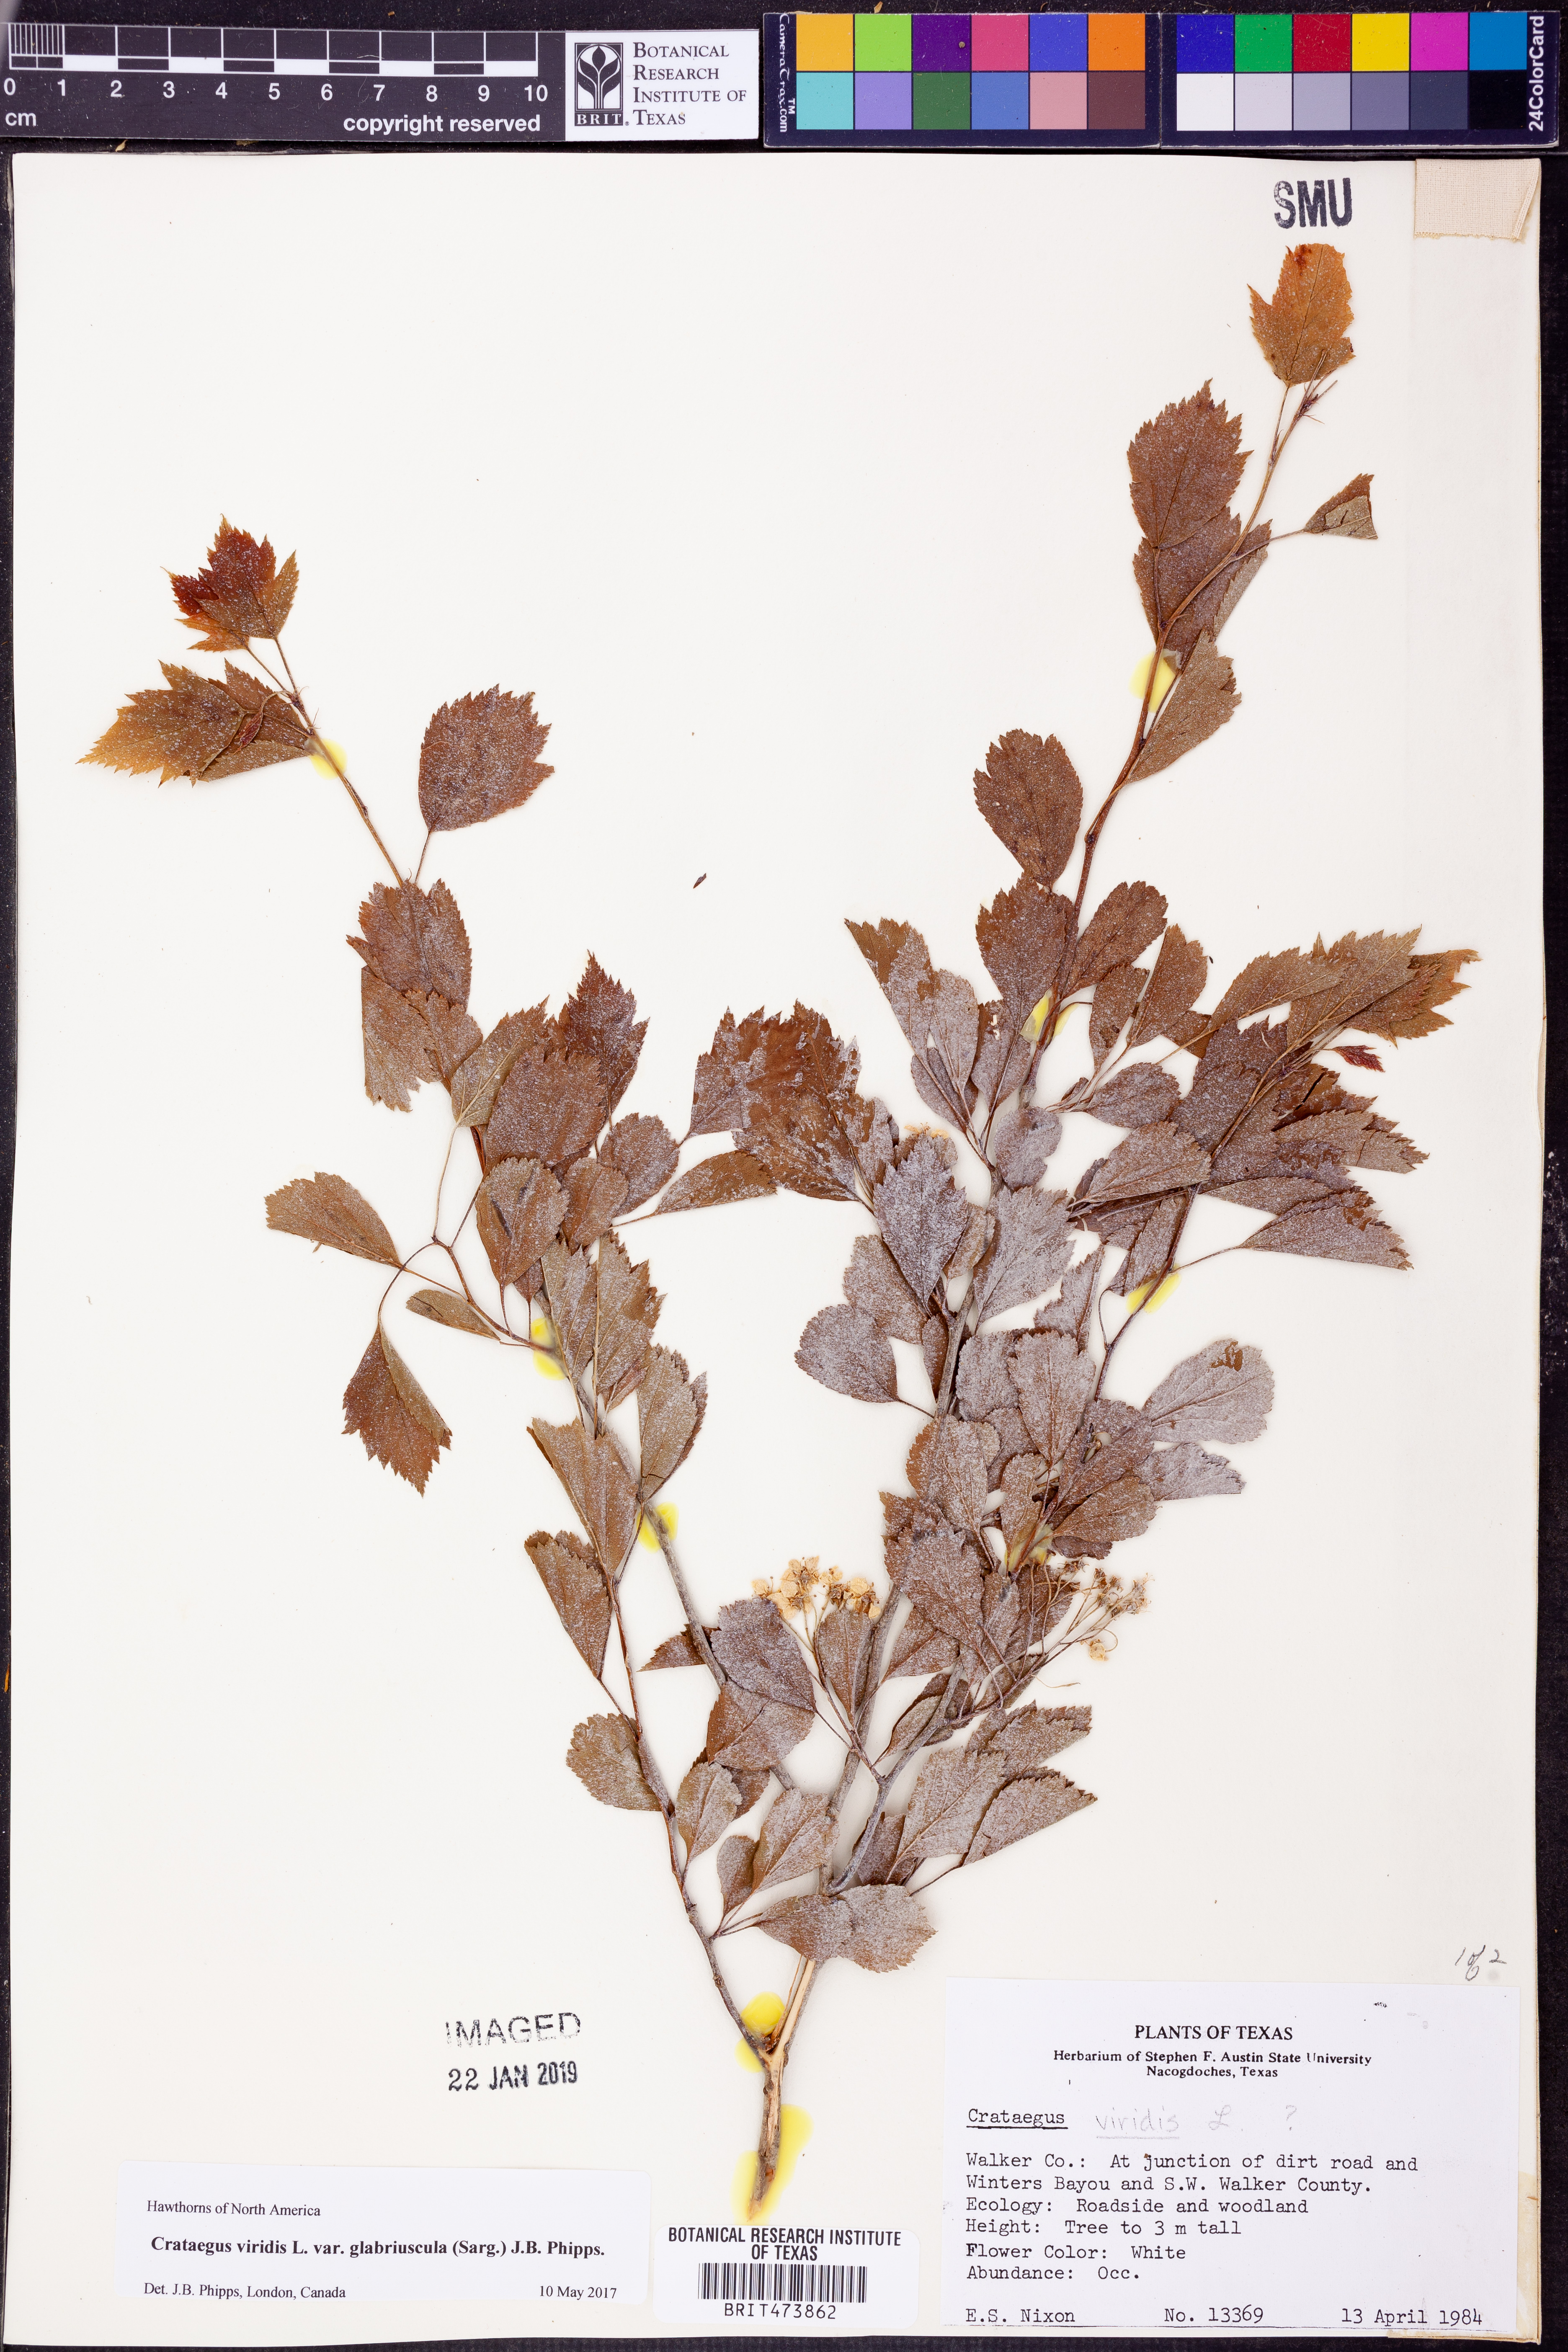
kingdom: Plantae
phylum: Tracheophyta
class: Magnoliopsida
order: Rosales
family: Rosaceae
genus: Crataegus
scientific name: Crataegus viridis
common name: Southernthorn
